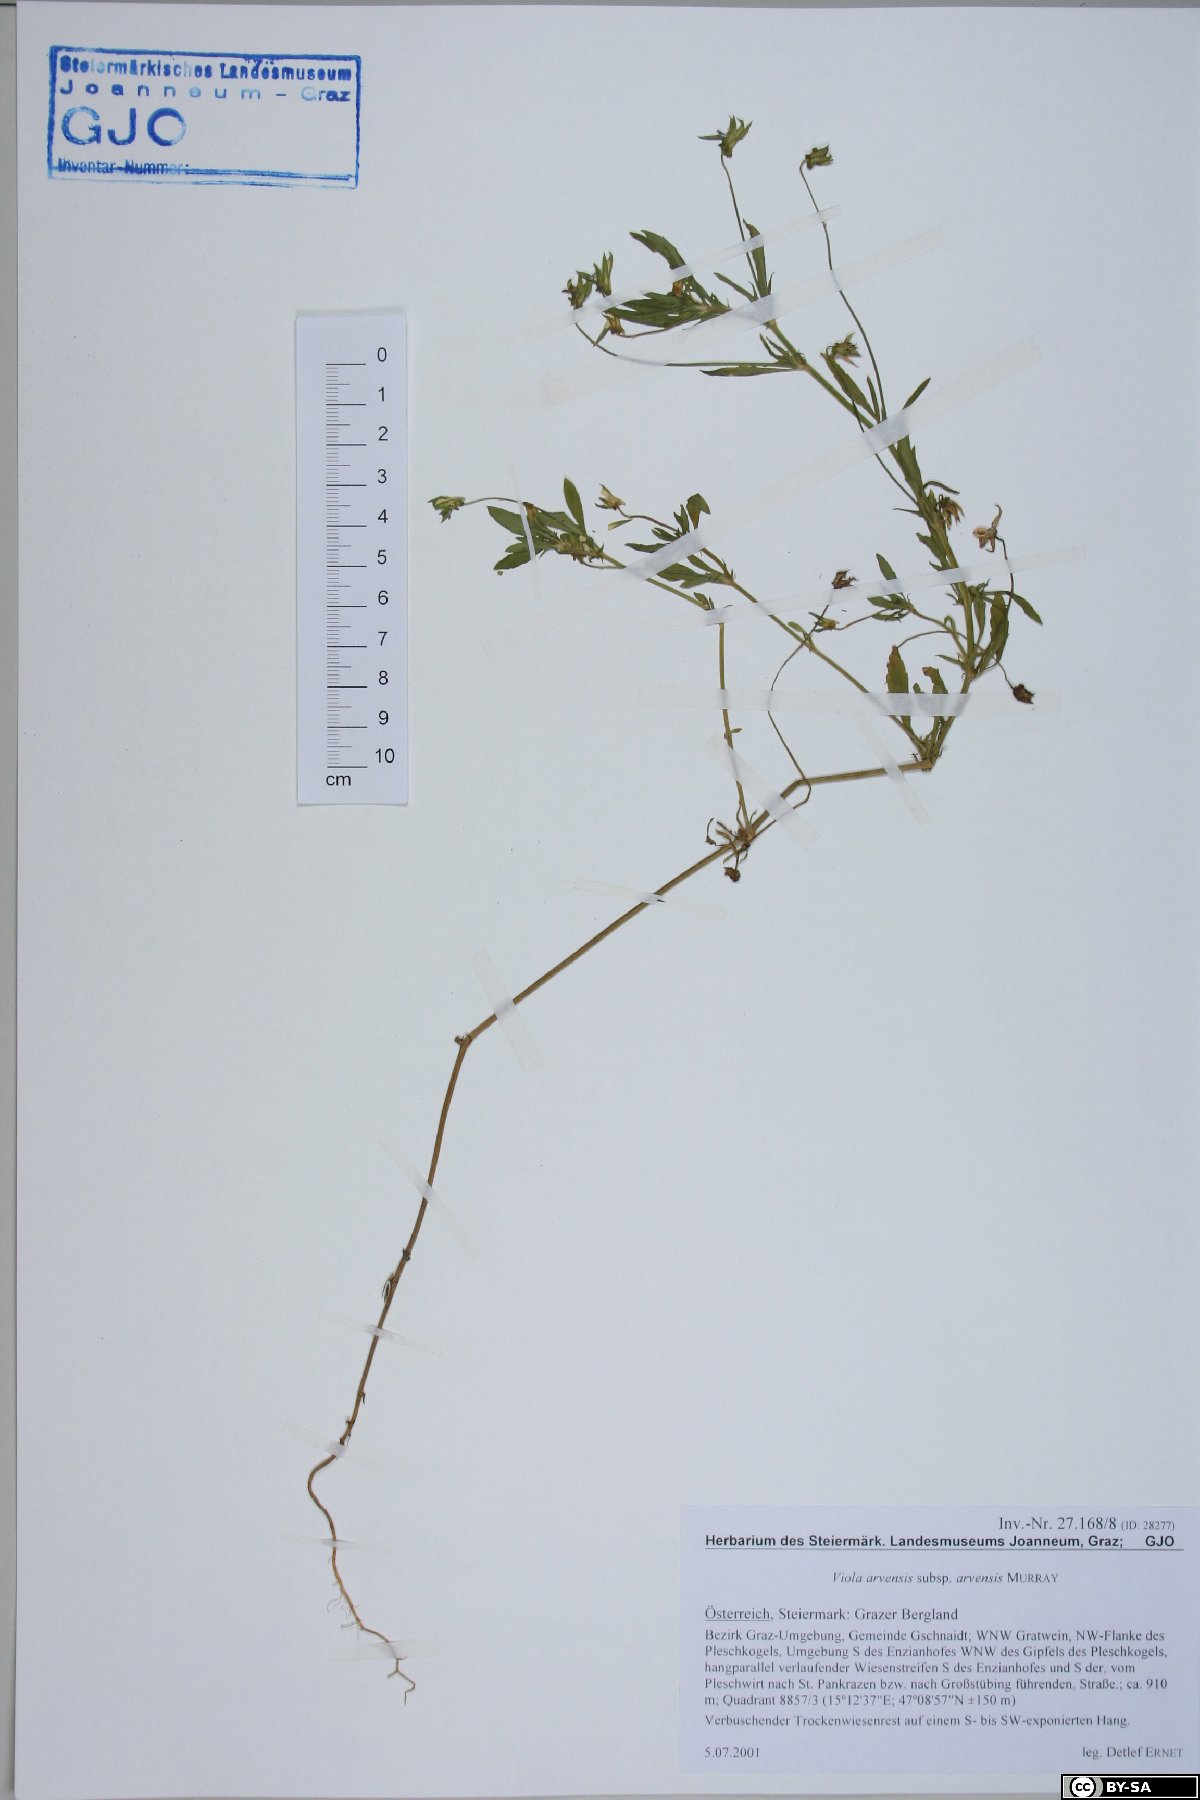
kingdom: Plantae
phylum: Tracheophyta
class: Magnoliopsida
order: Malpighiales
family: Violaceae
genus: Viola
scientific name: Viola arvensis
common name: Field pansy
